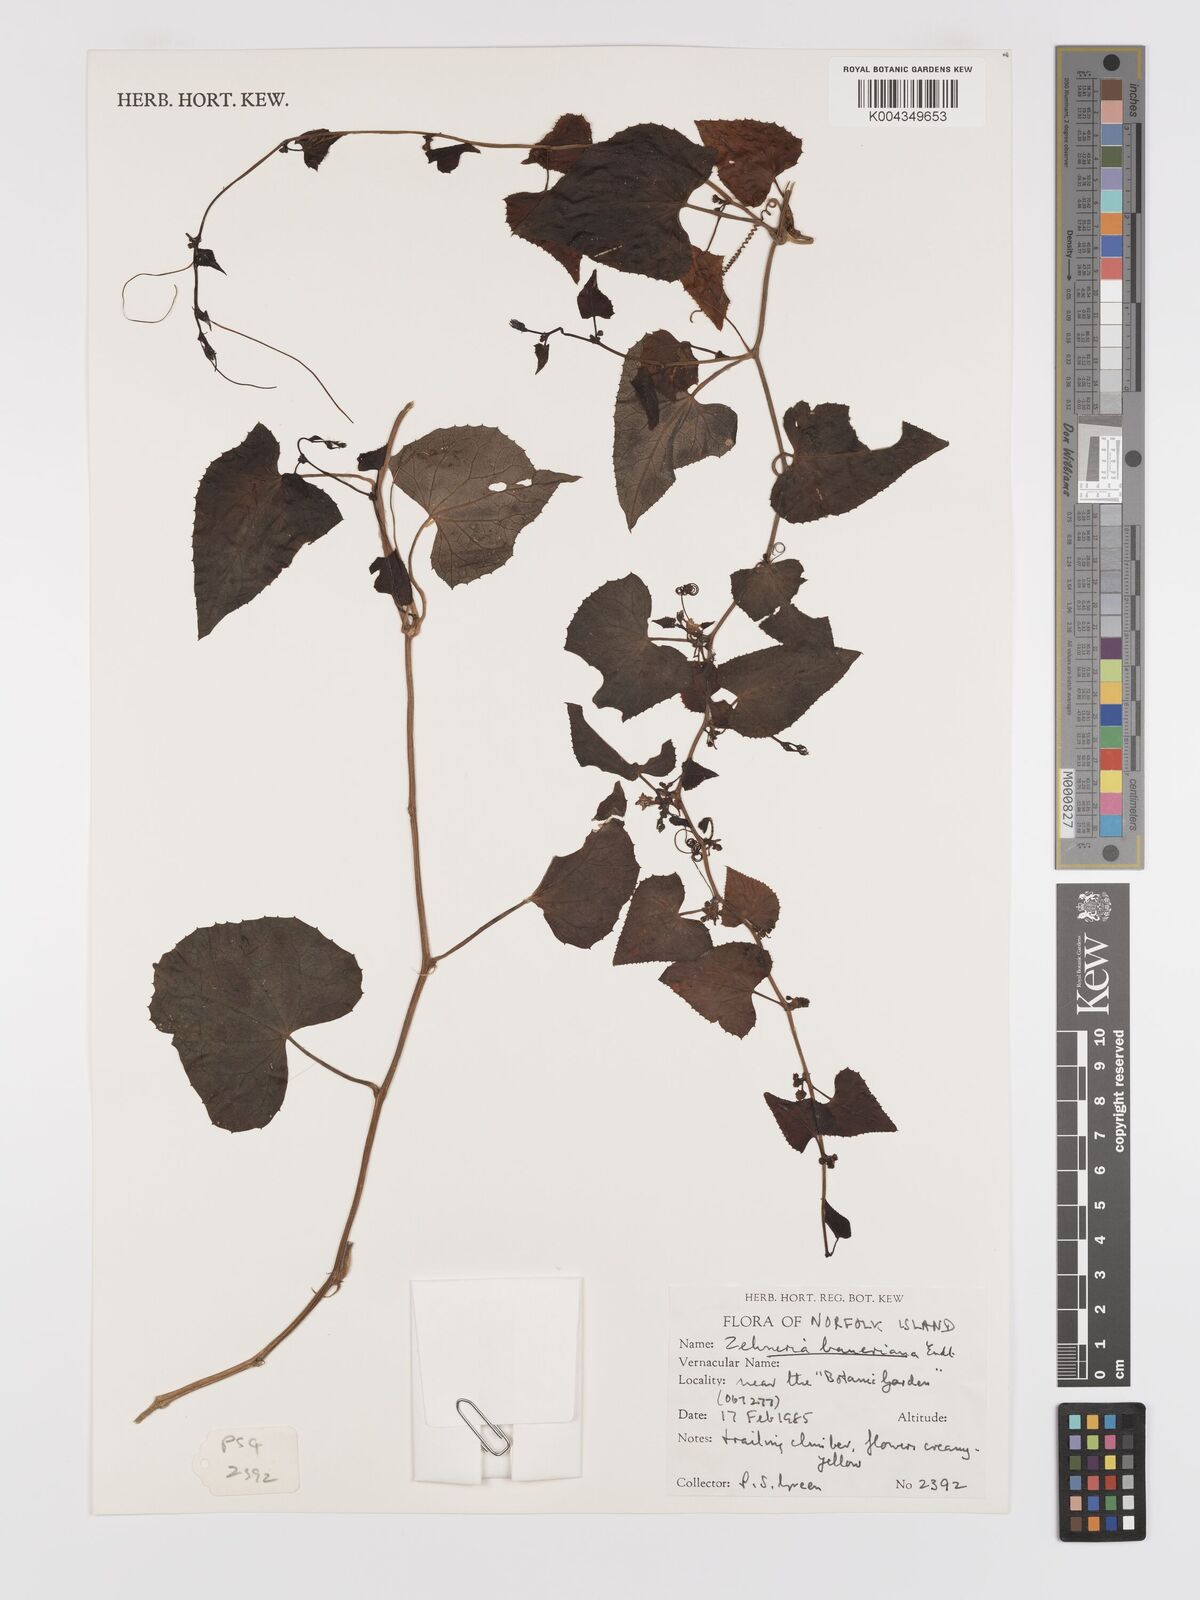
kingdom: Plantae
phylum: Tracheophyta
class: Magnoliopsida
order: Cucurbitales
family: Cucurbitaceae
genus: Zehneria
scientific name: Zehneria mucronata
